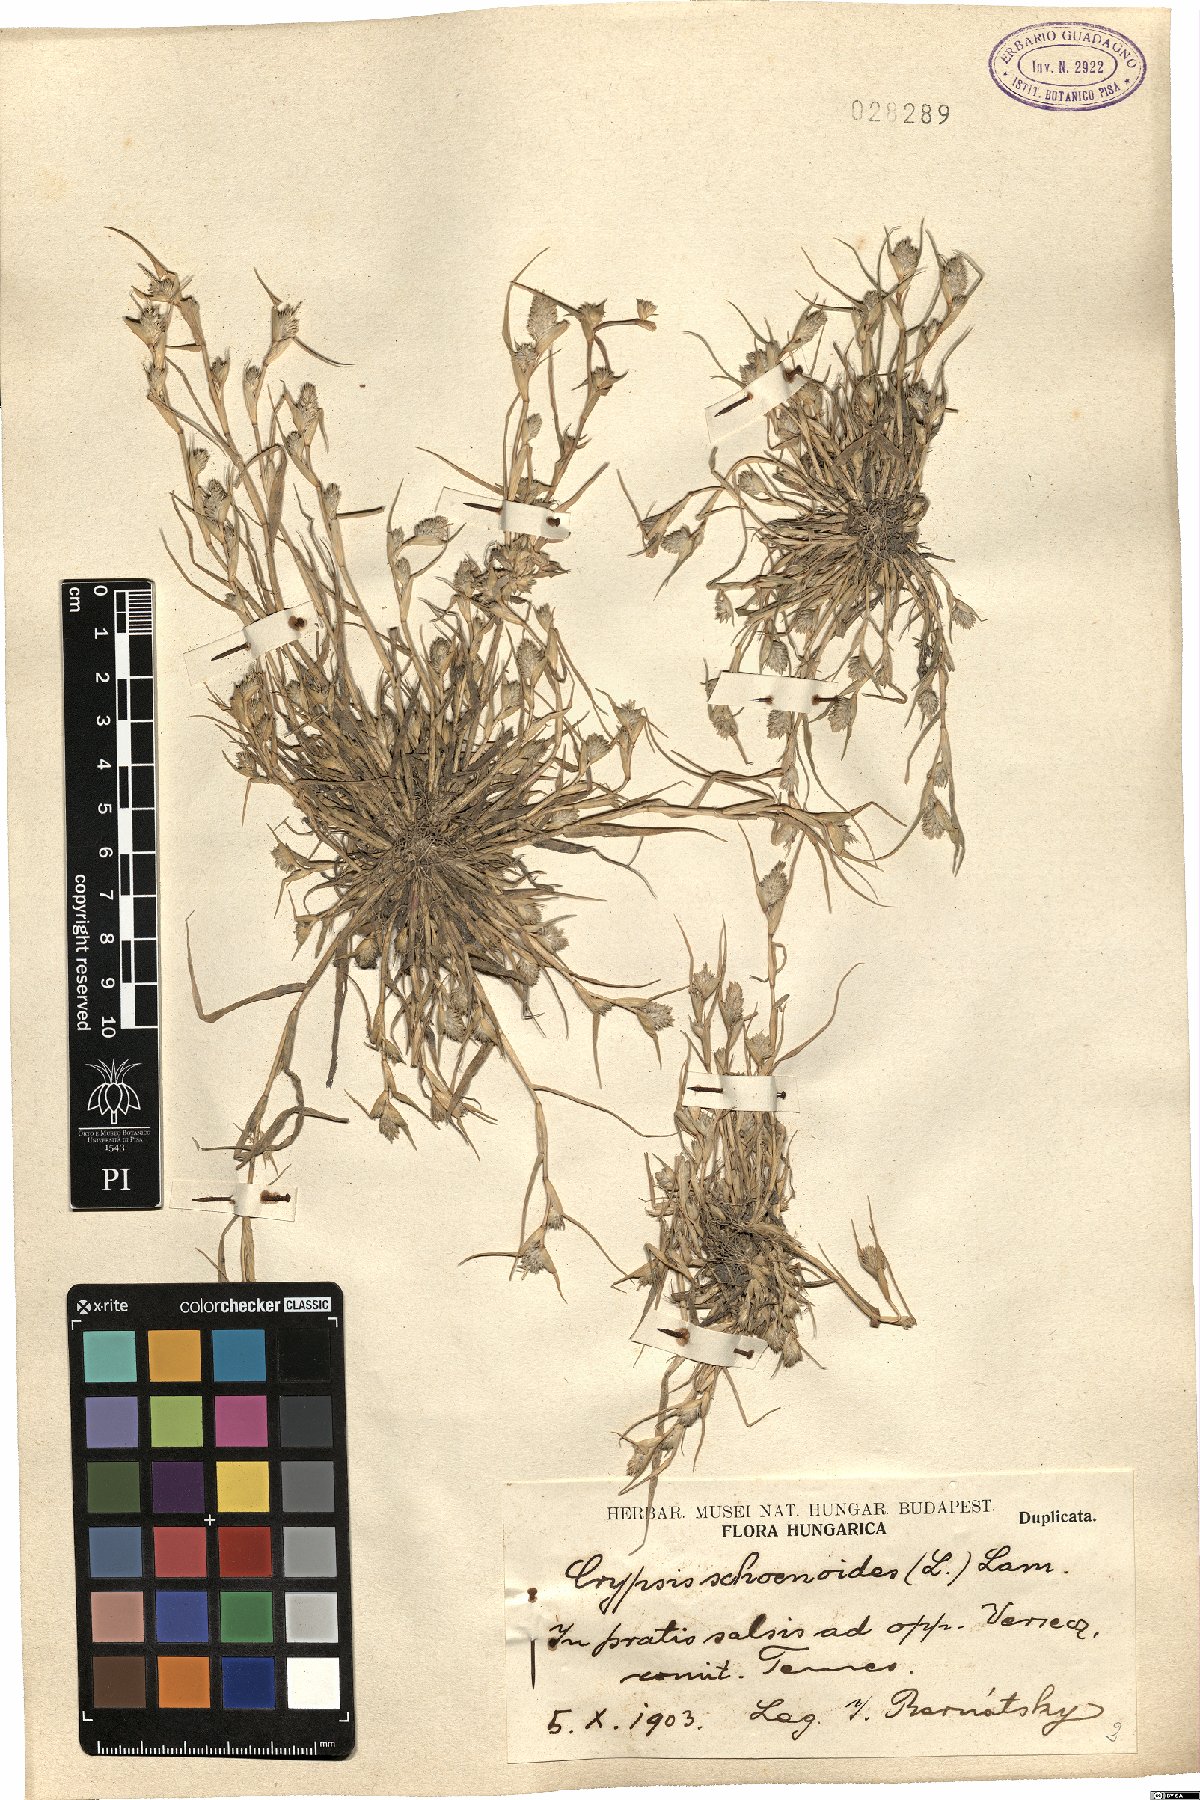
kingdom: Plantae
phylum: Tracheophyta
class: Liliopsida
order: Poales
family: Poaceae
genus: Sporobolus
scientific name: Sporobolus schoenoides
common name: Rush-like timothy
